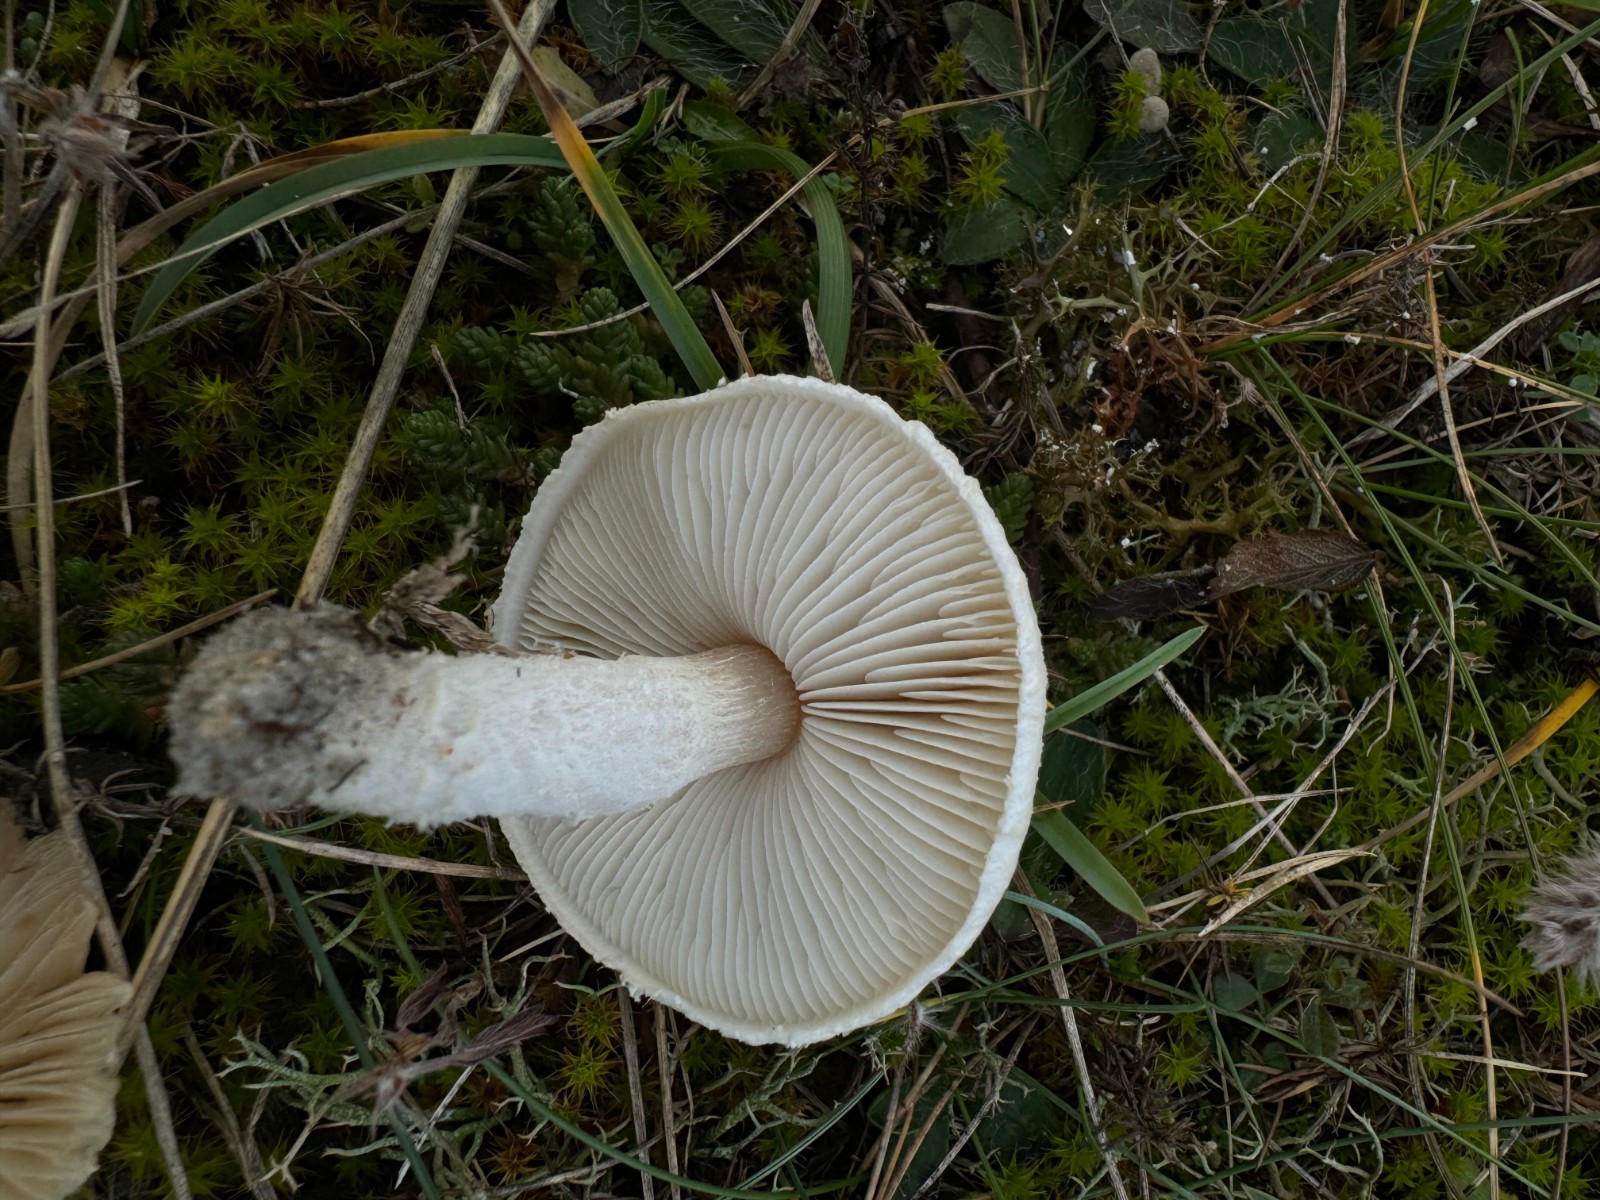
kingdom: Fungi
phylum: Basidiomycota
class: Agaricomycetes
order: Agaricales
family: Agaricaceae
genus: Lepiota
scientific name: Lepiota erminea
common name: hvid parasolhat
